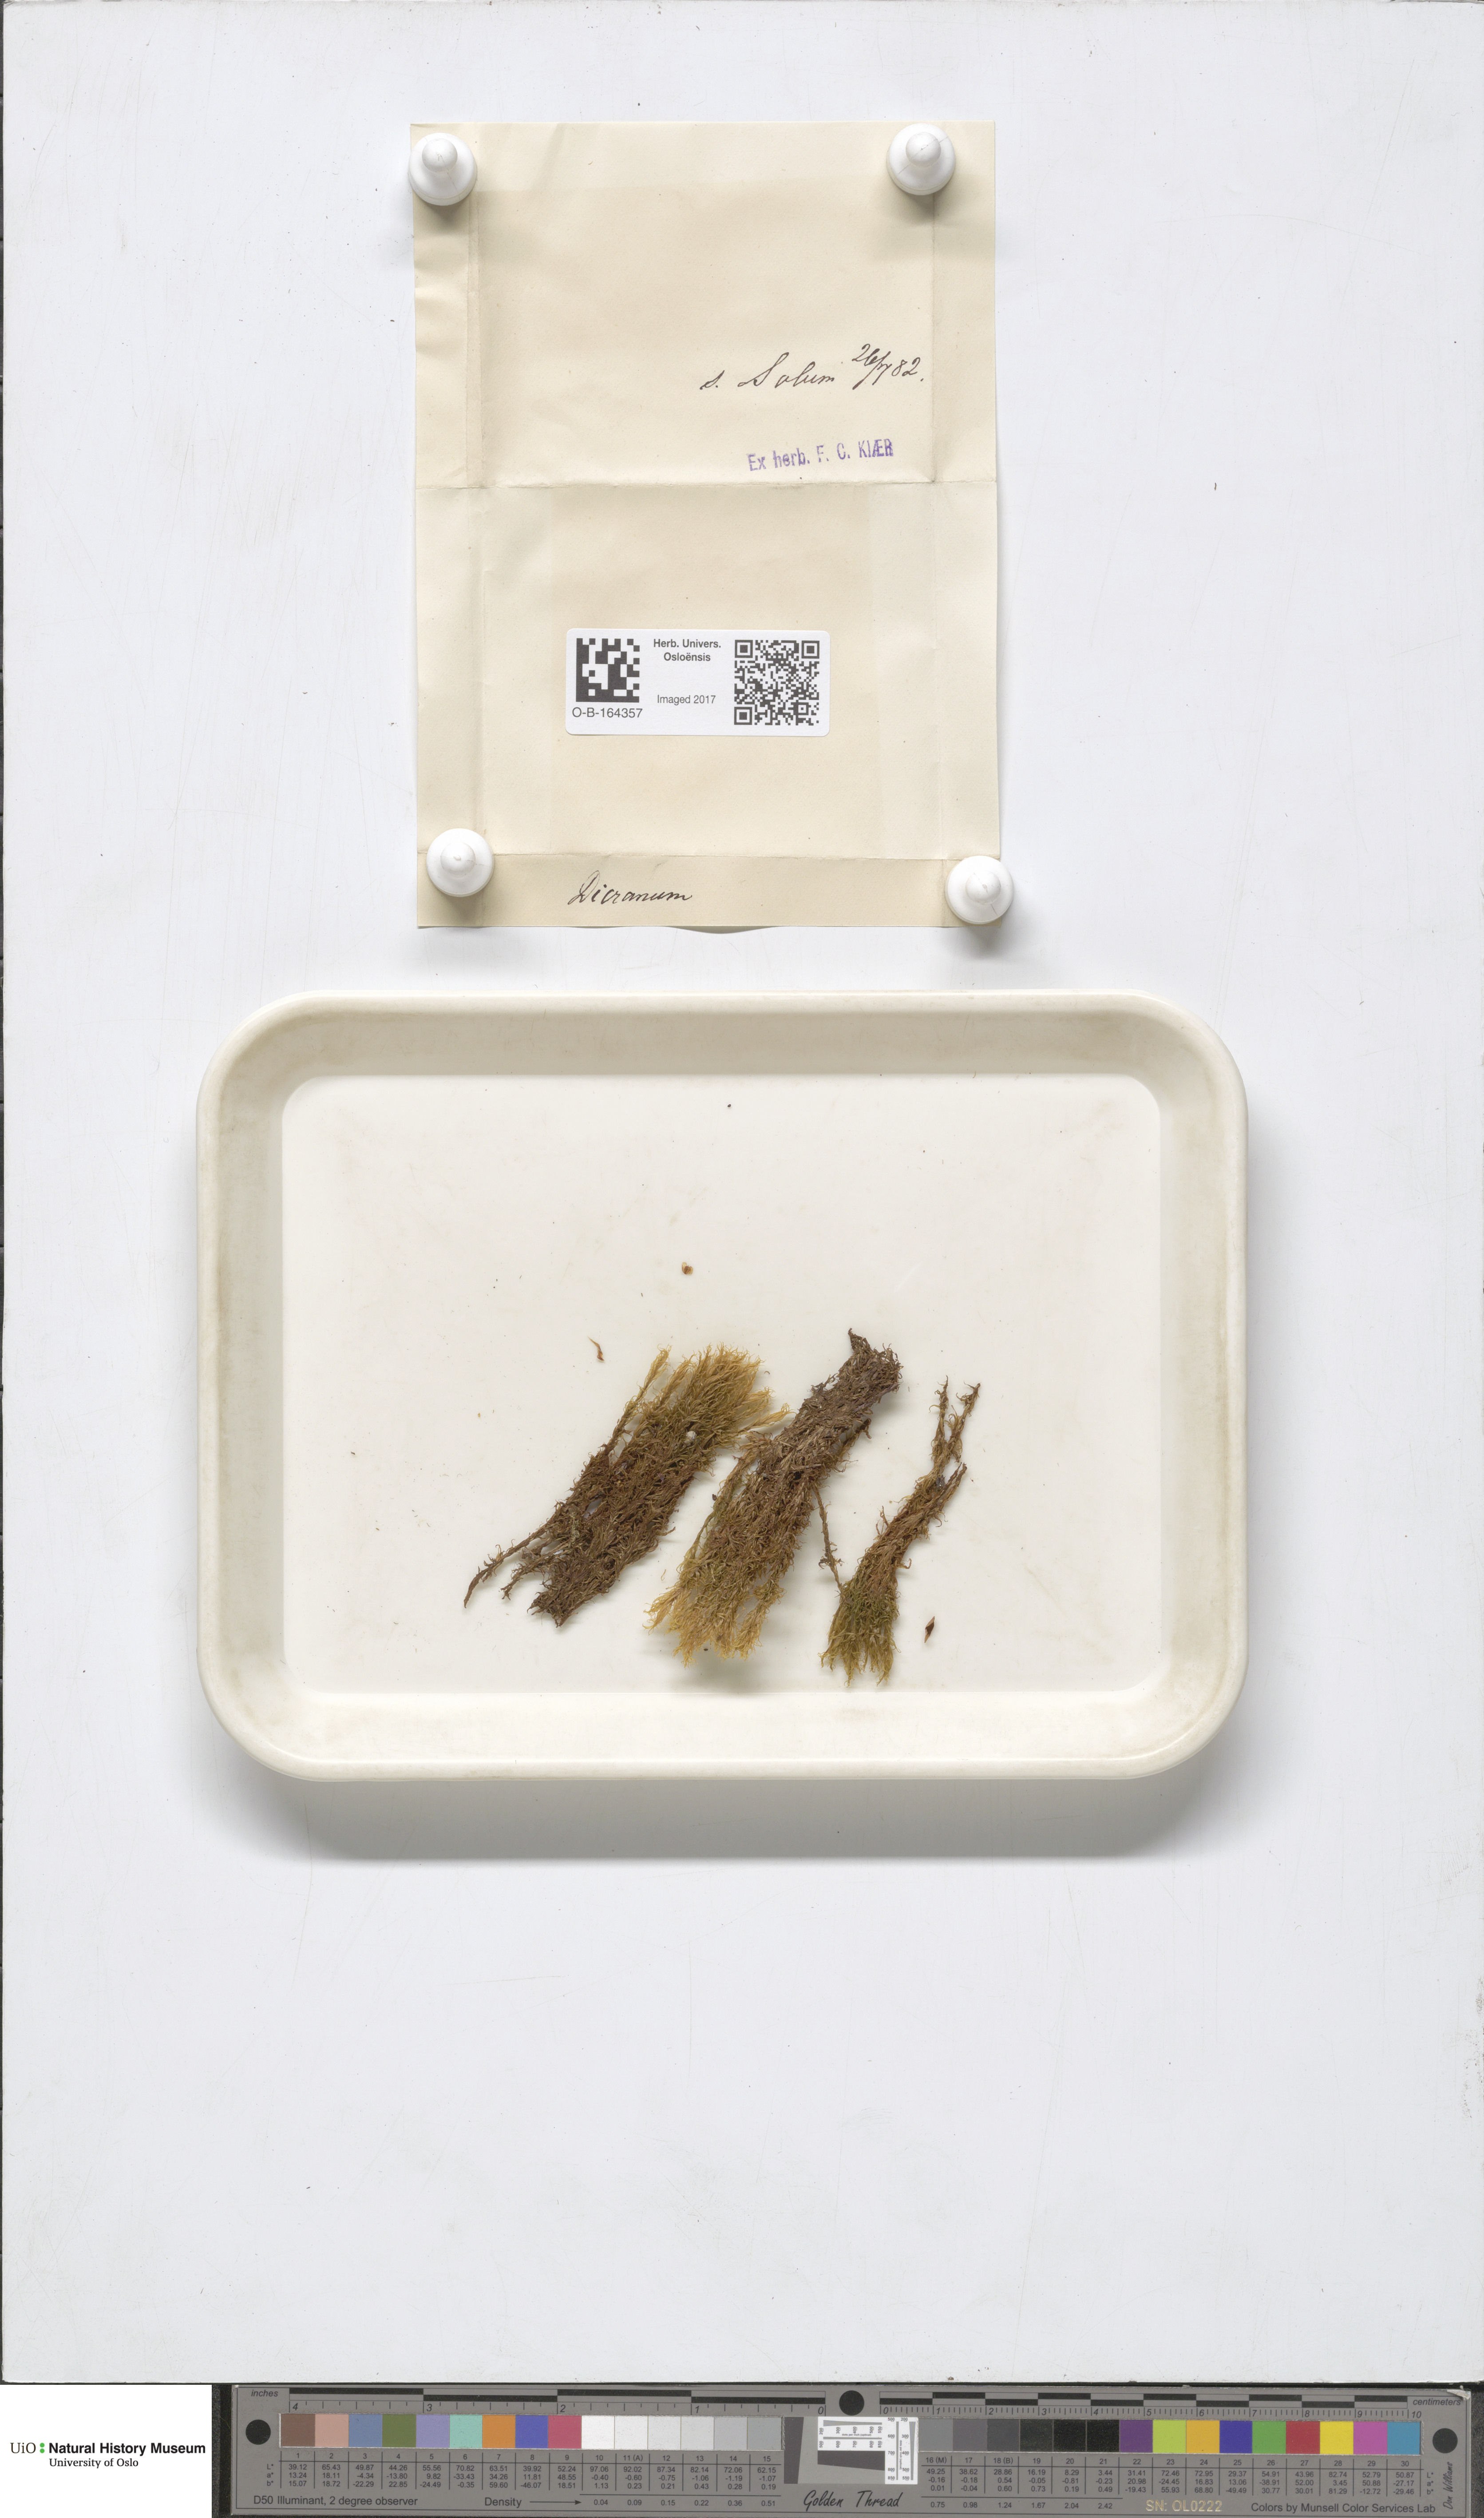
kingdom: Plantae
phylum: Bryophyta
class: Bryopsida
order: Dicranales
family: Dicranaceae
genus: Dicranum
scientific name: Dicranum
